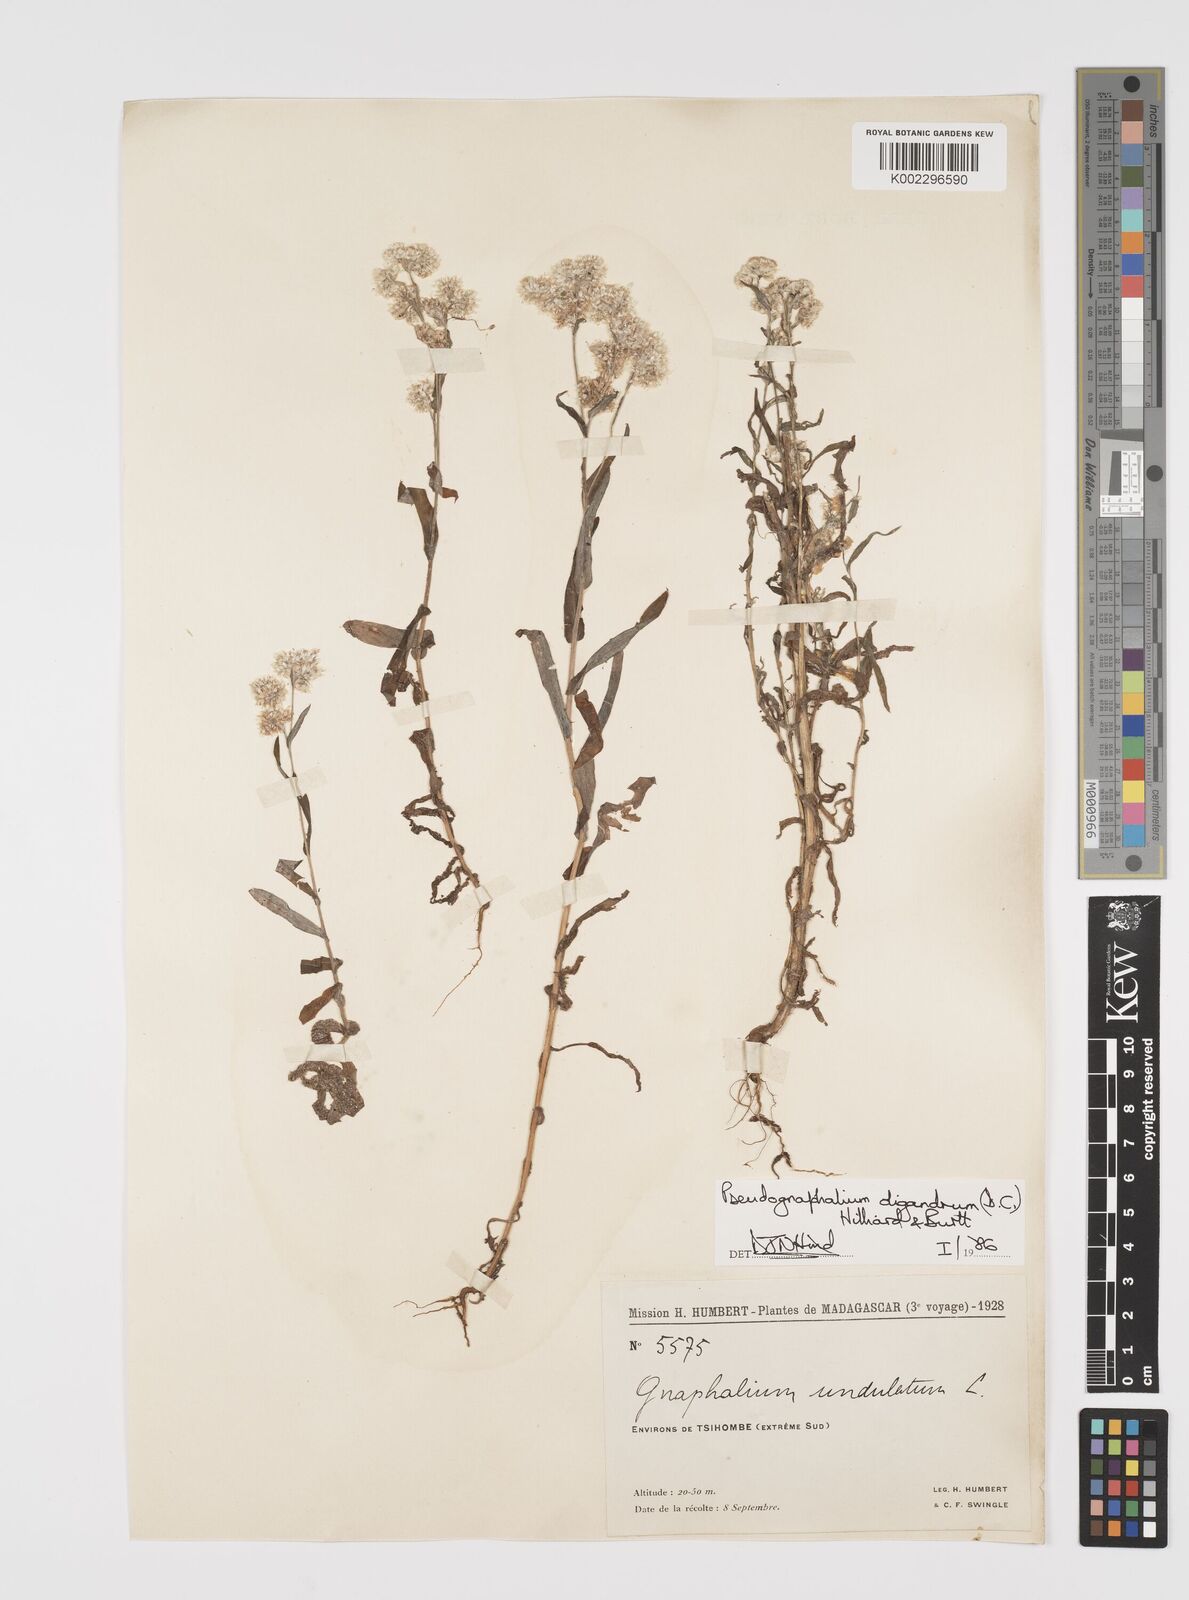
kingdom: Plantae
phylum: Tracheophyta
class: Magnoliopsida
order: Asterales
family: Asteraceae
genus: Pseudognaphalium
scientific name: Pseudognaphalium oligandrum
